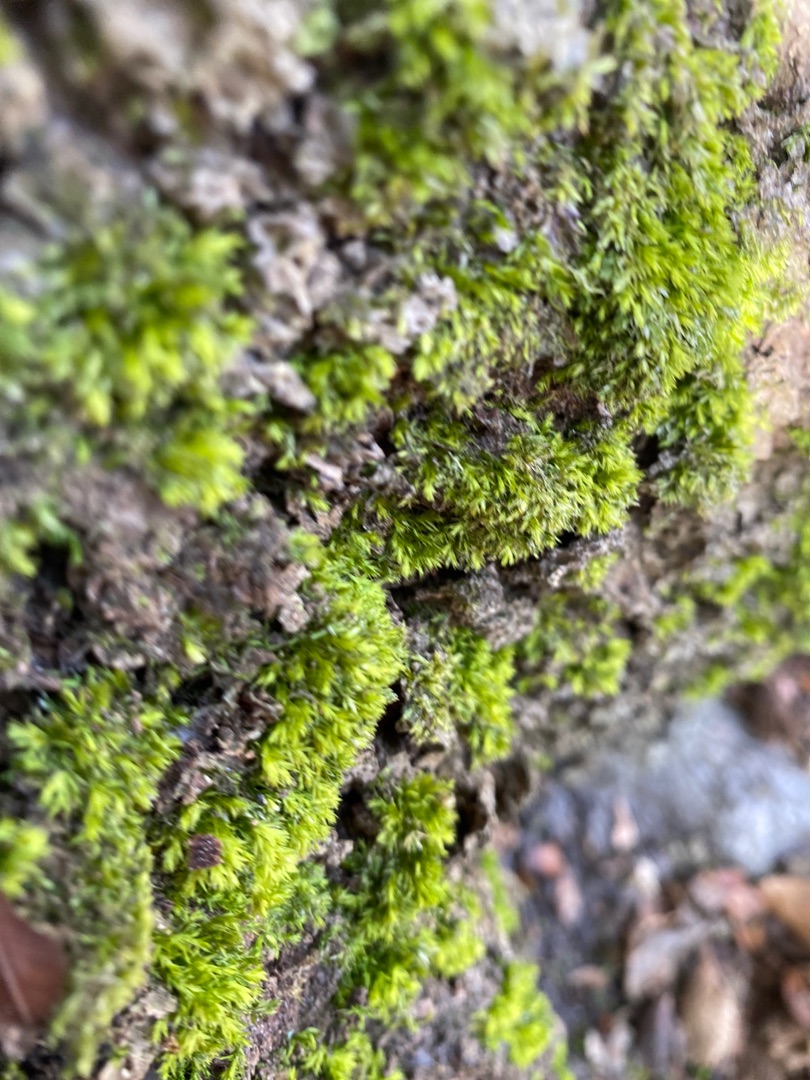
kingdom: Plantae
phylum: Bryophyta
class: Bryopsida
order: Hypnales
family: Plagiotheciaceae
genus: Plagiothecium
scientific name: Plagiothecium
